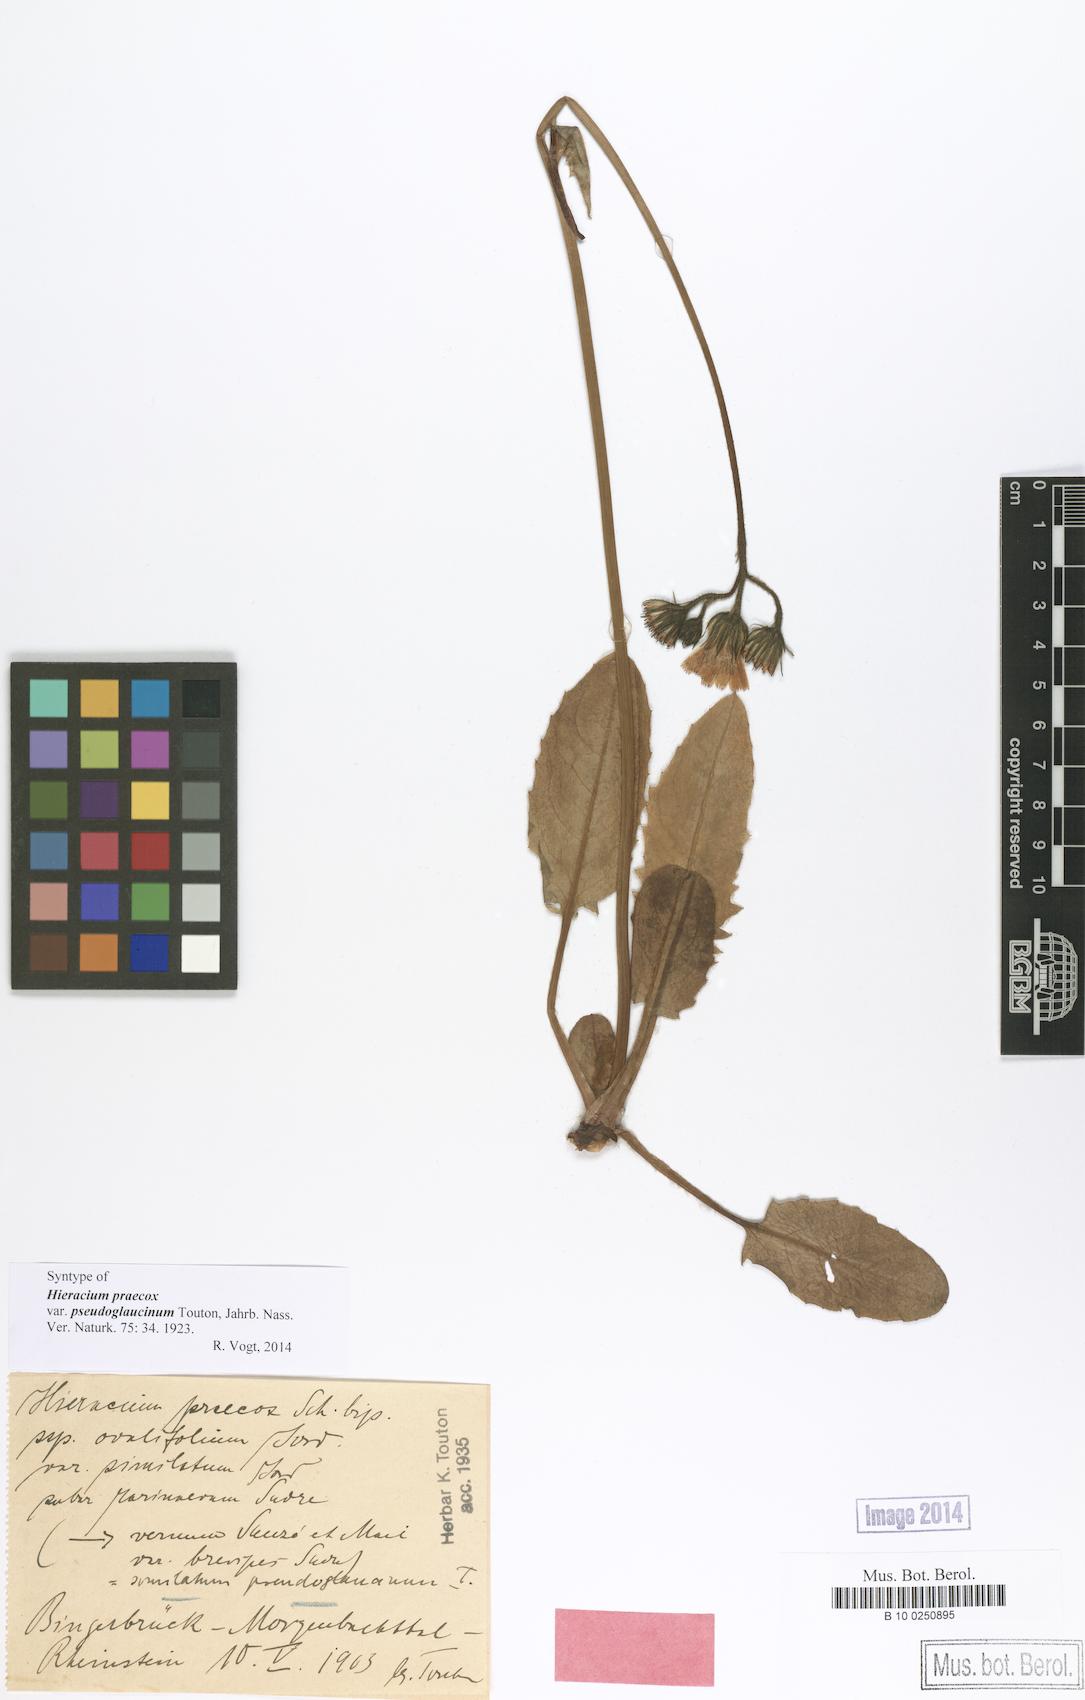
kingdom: Plantae
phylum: Tracheophyta
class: Magnoliopsida
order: Asterales
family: Asteraceae
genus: Hieracium
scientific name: Hieracium praecox
